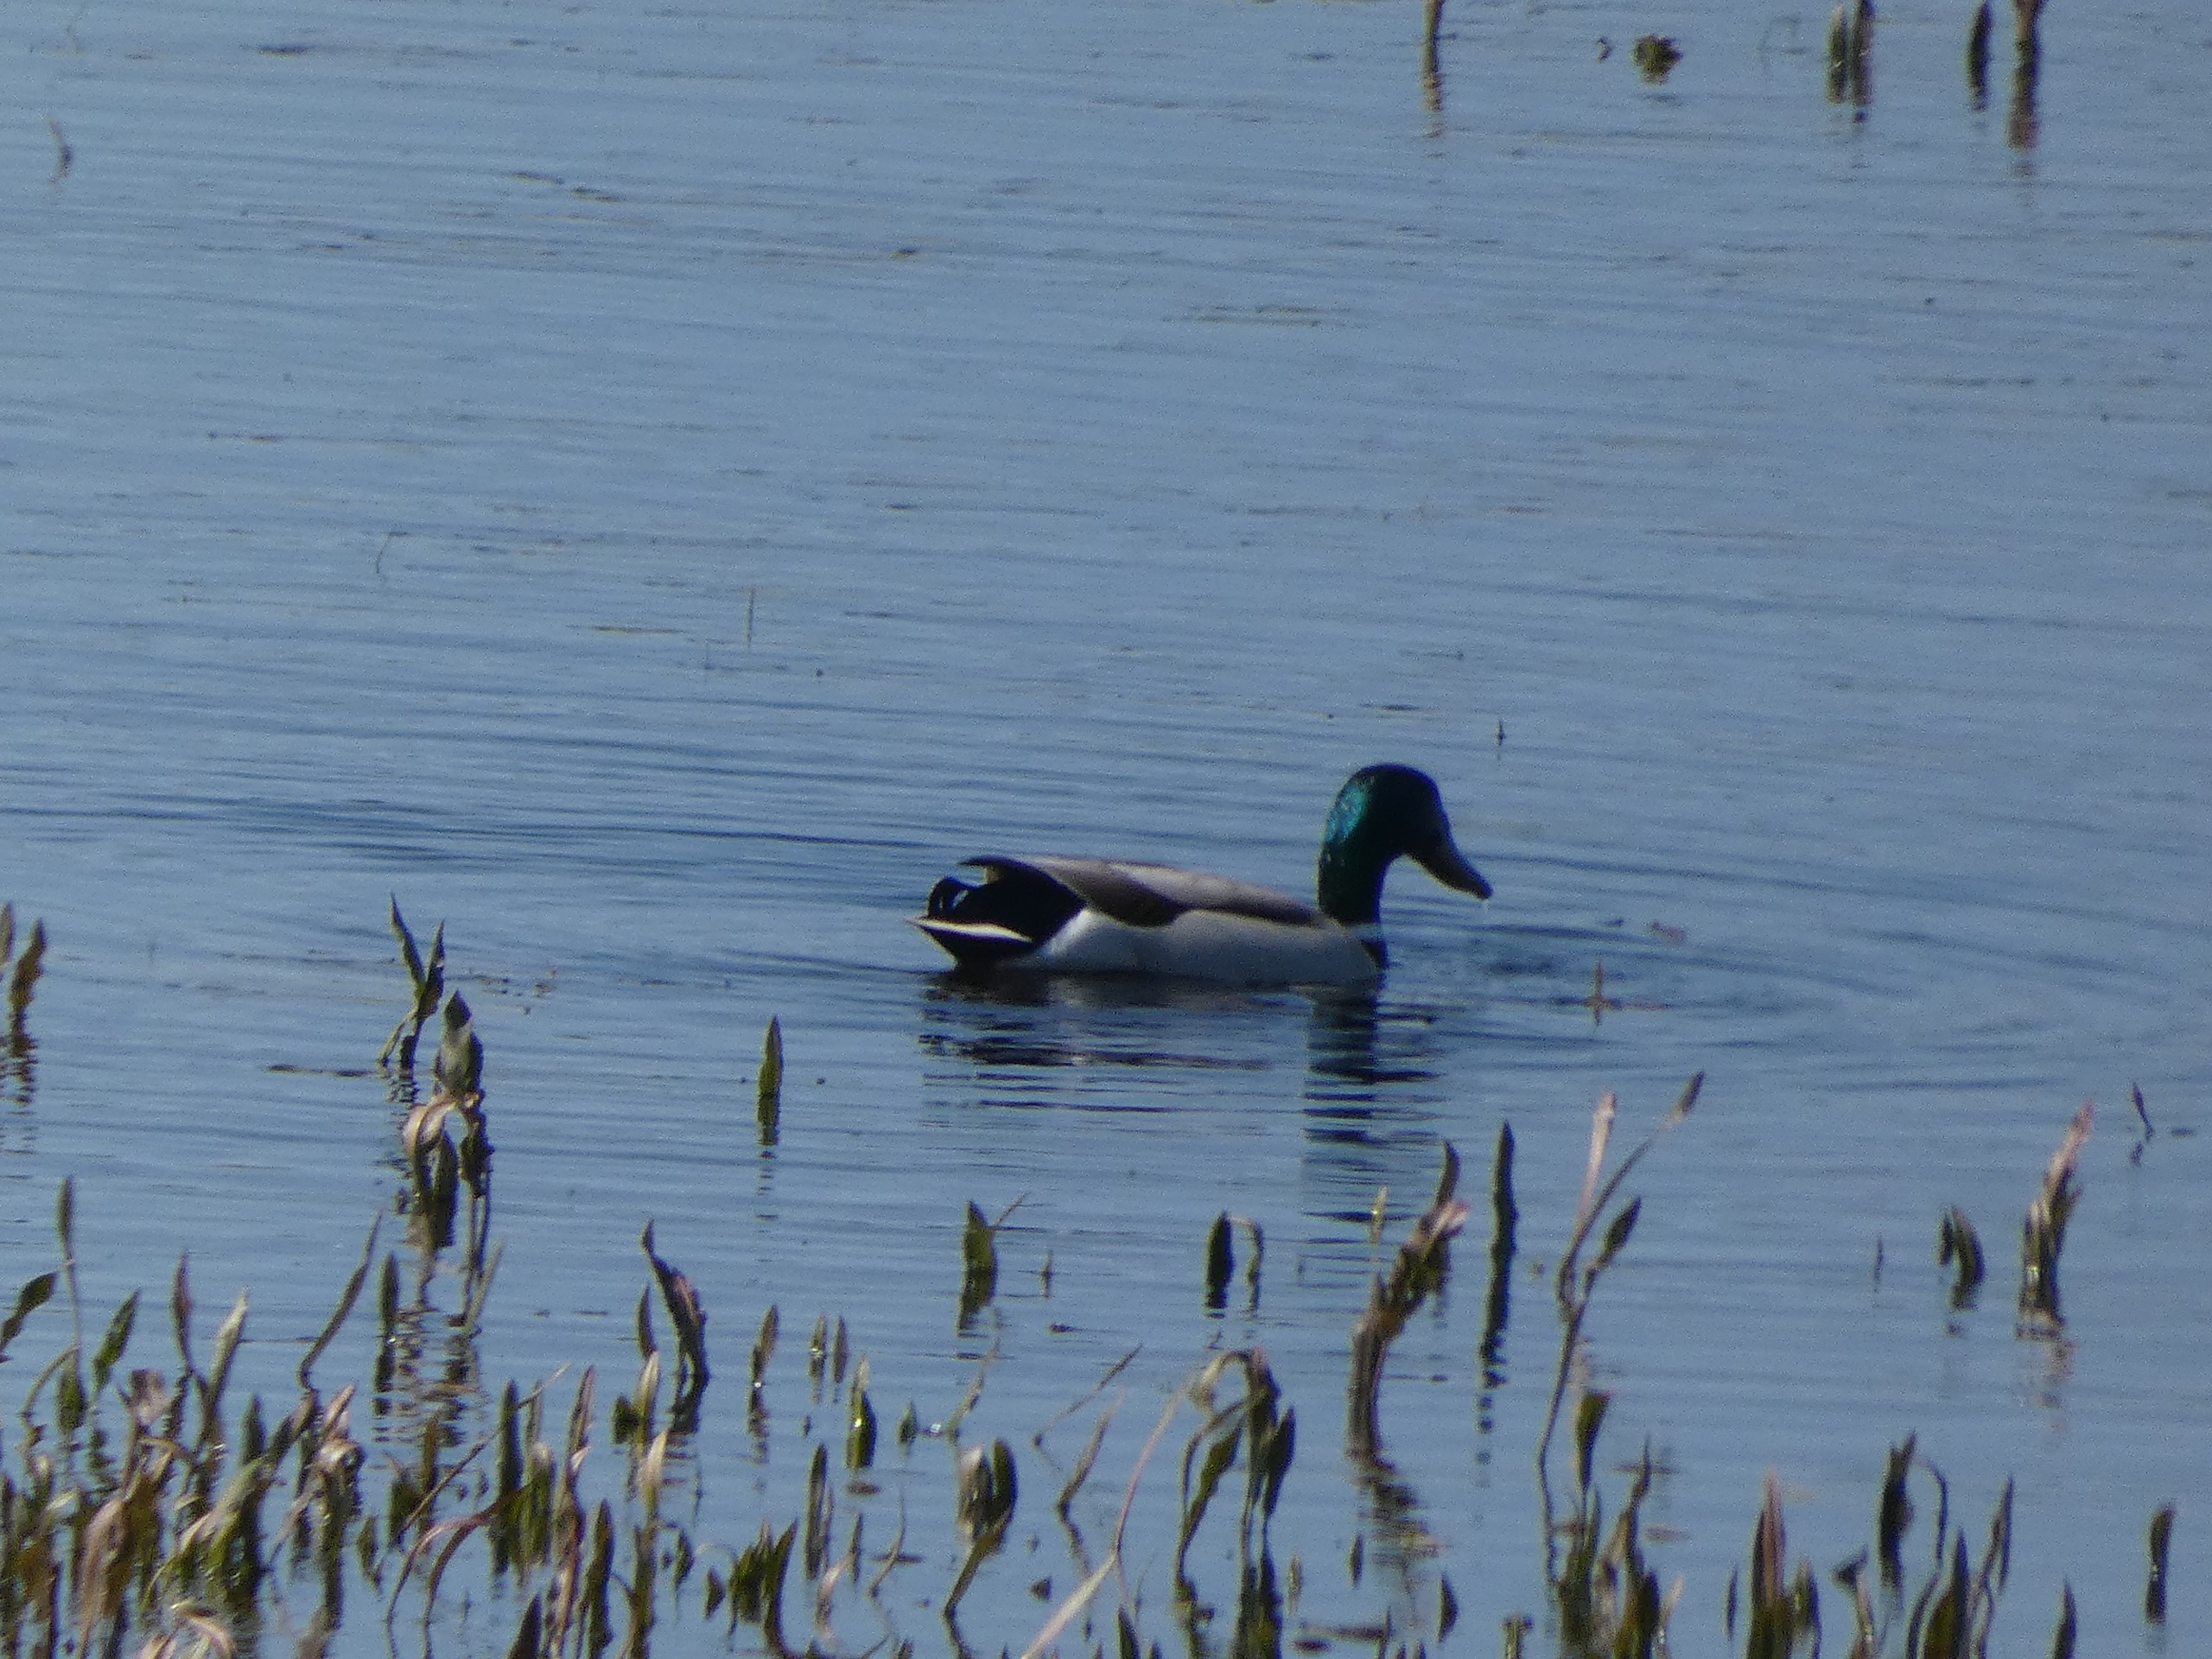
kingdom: Animalia
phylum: Chordata
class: Aves
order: Anseriformes
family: Anatidae
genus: Anas
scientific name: Anas platyrhynchos
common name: Gråand
